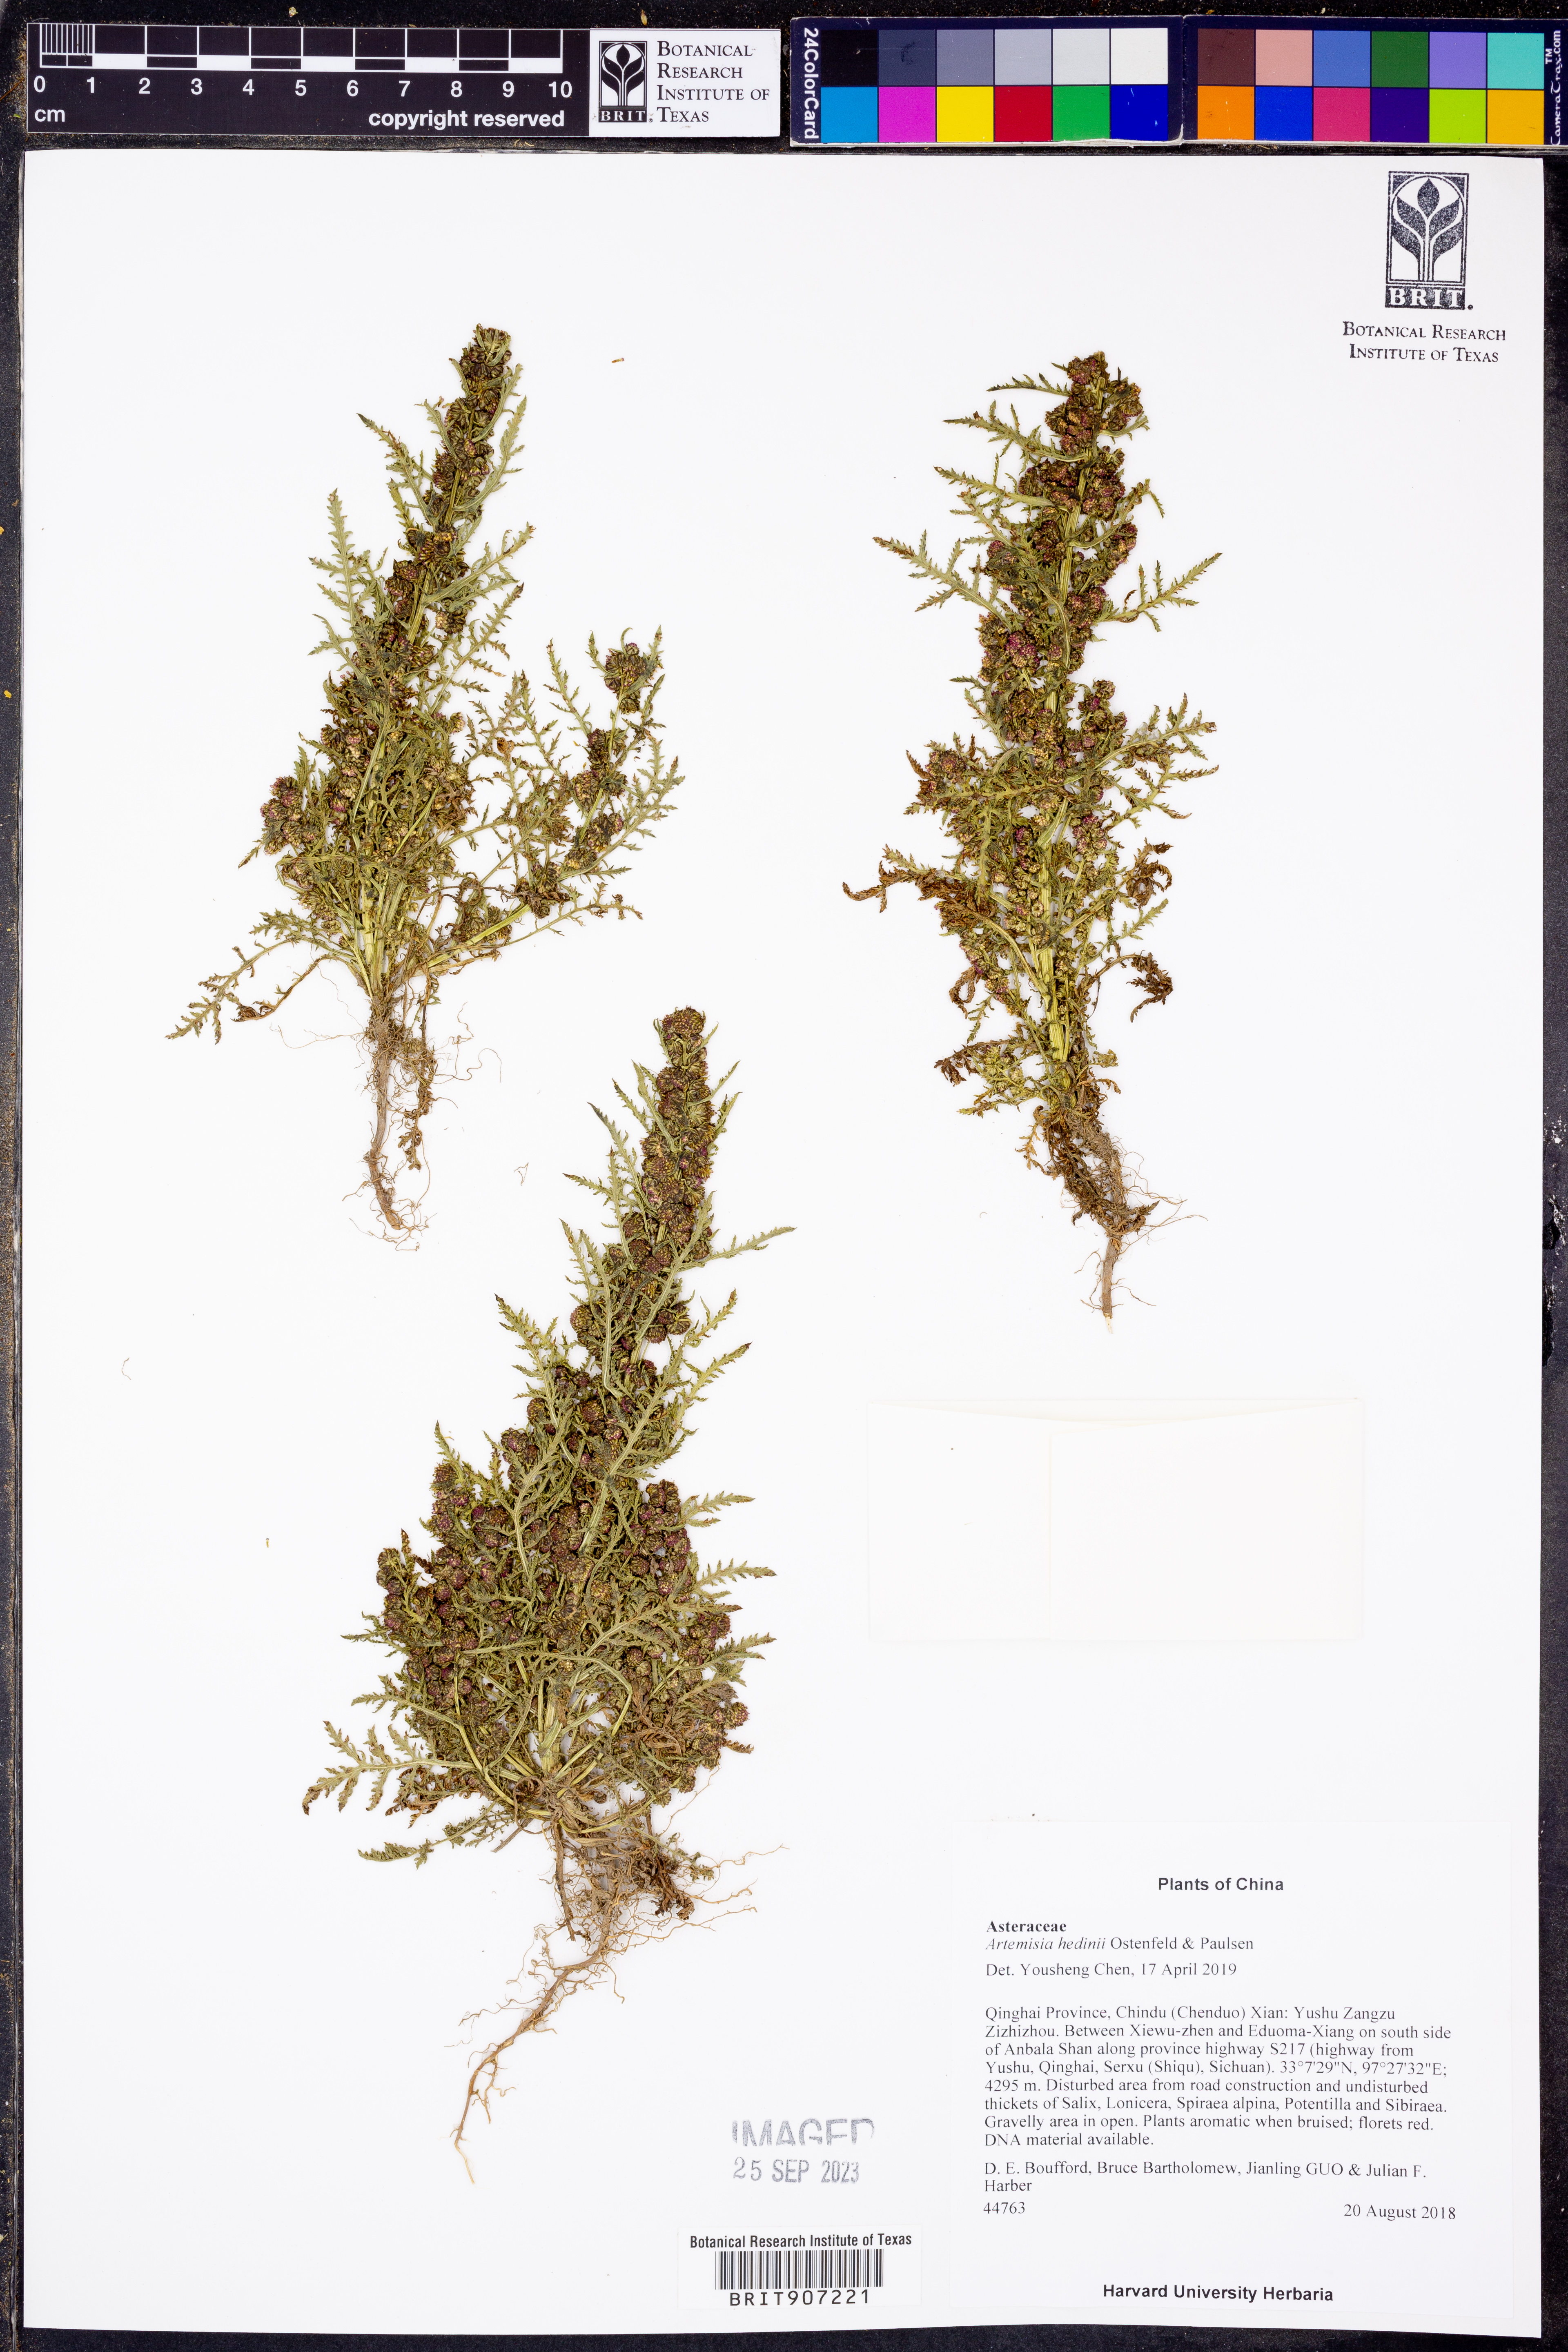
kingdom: Plantae
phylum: Tracheophyta
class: Magnoliopsida
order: Asterales
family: Asteraceae
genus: Artemisia
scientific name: Artemisia hedinii
